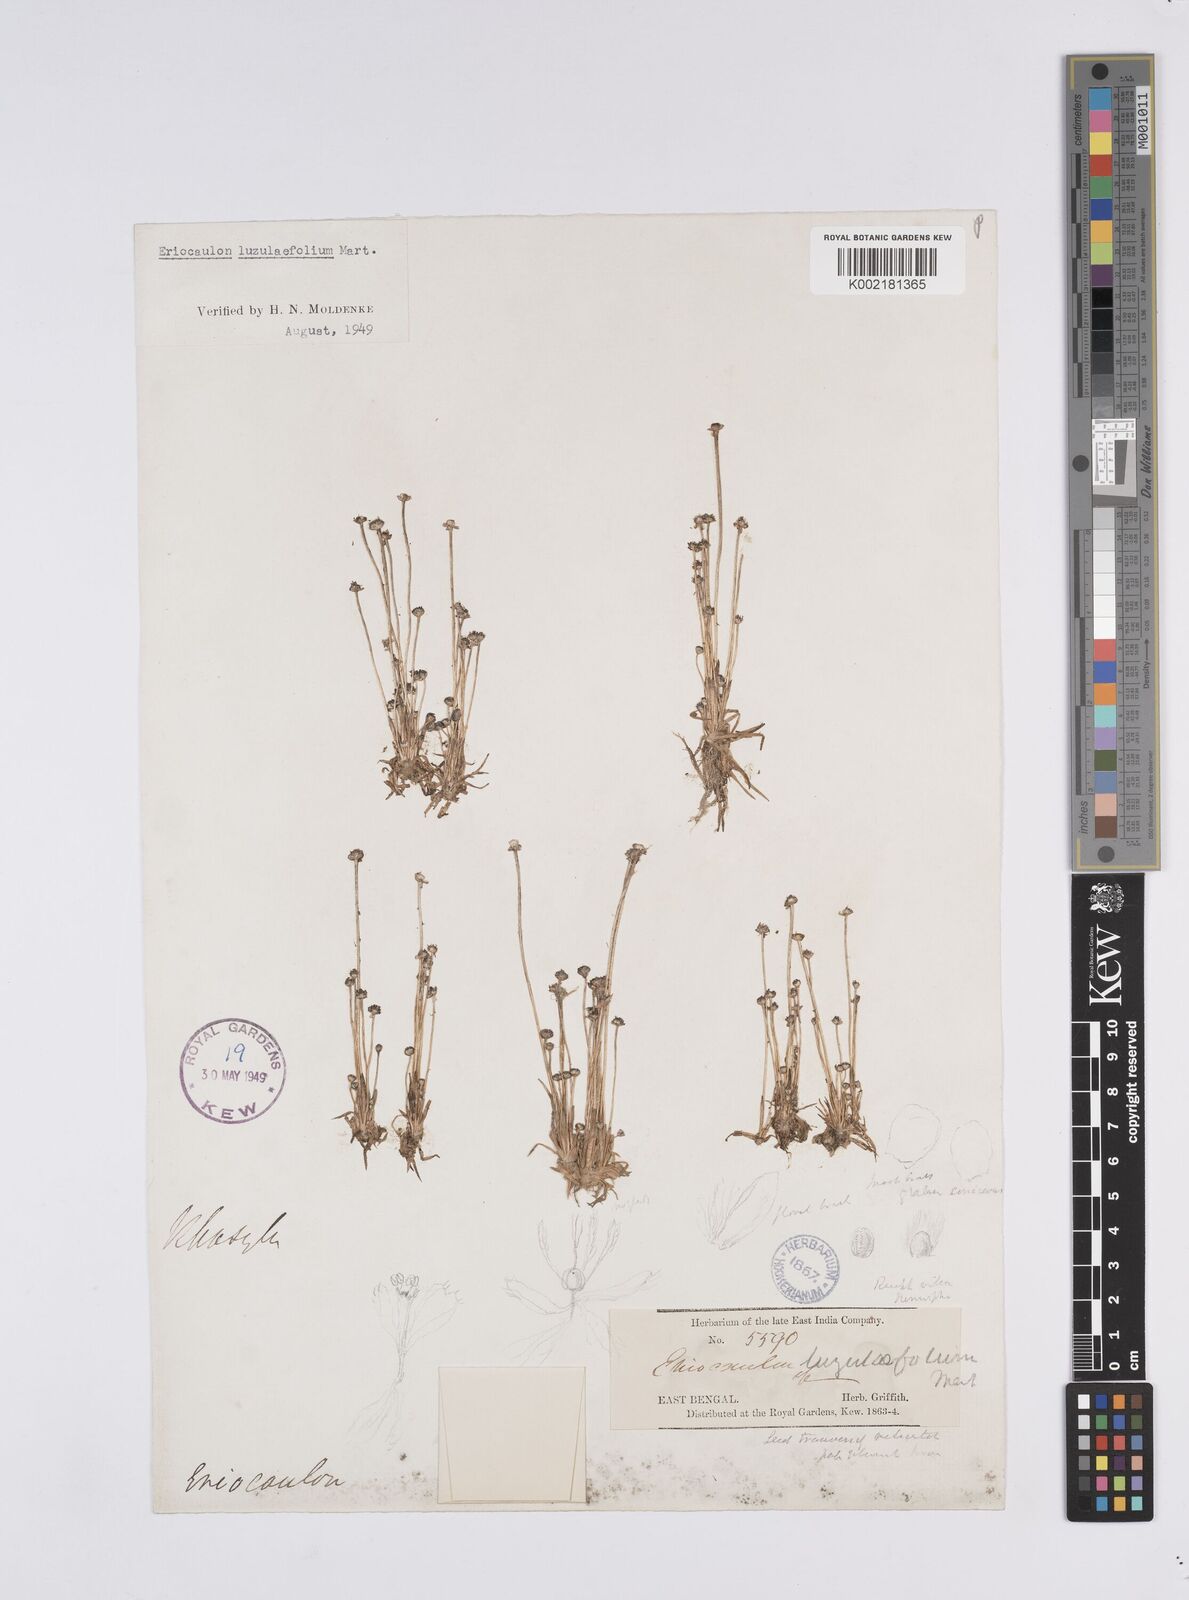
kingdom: Plantae
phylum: Tracheophyta
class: Liliopsida
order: Poales
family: Eriocaulaceae
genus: Eriocaulon
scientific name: Eriocaulon nepalense
